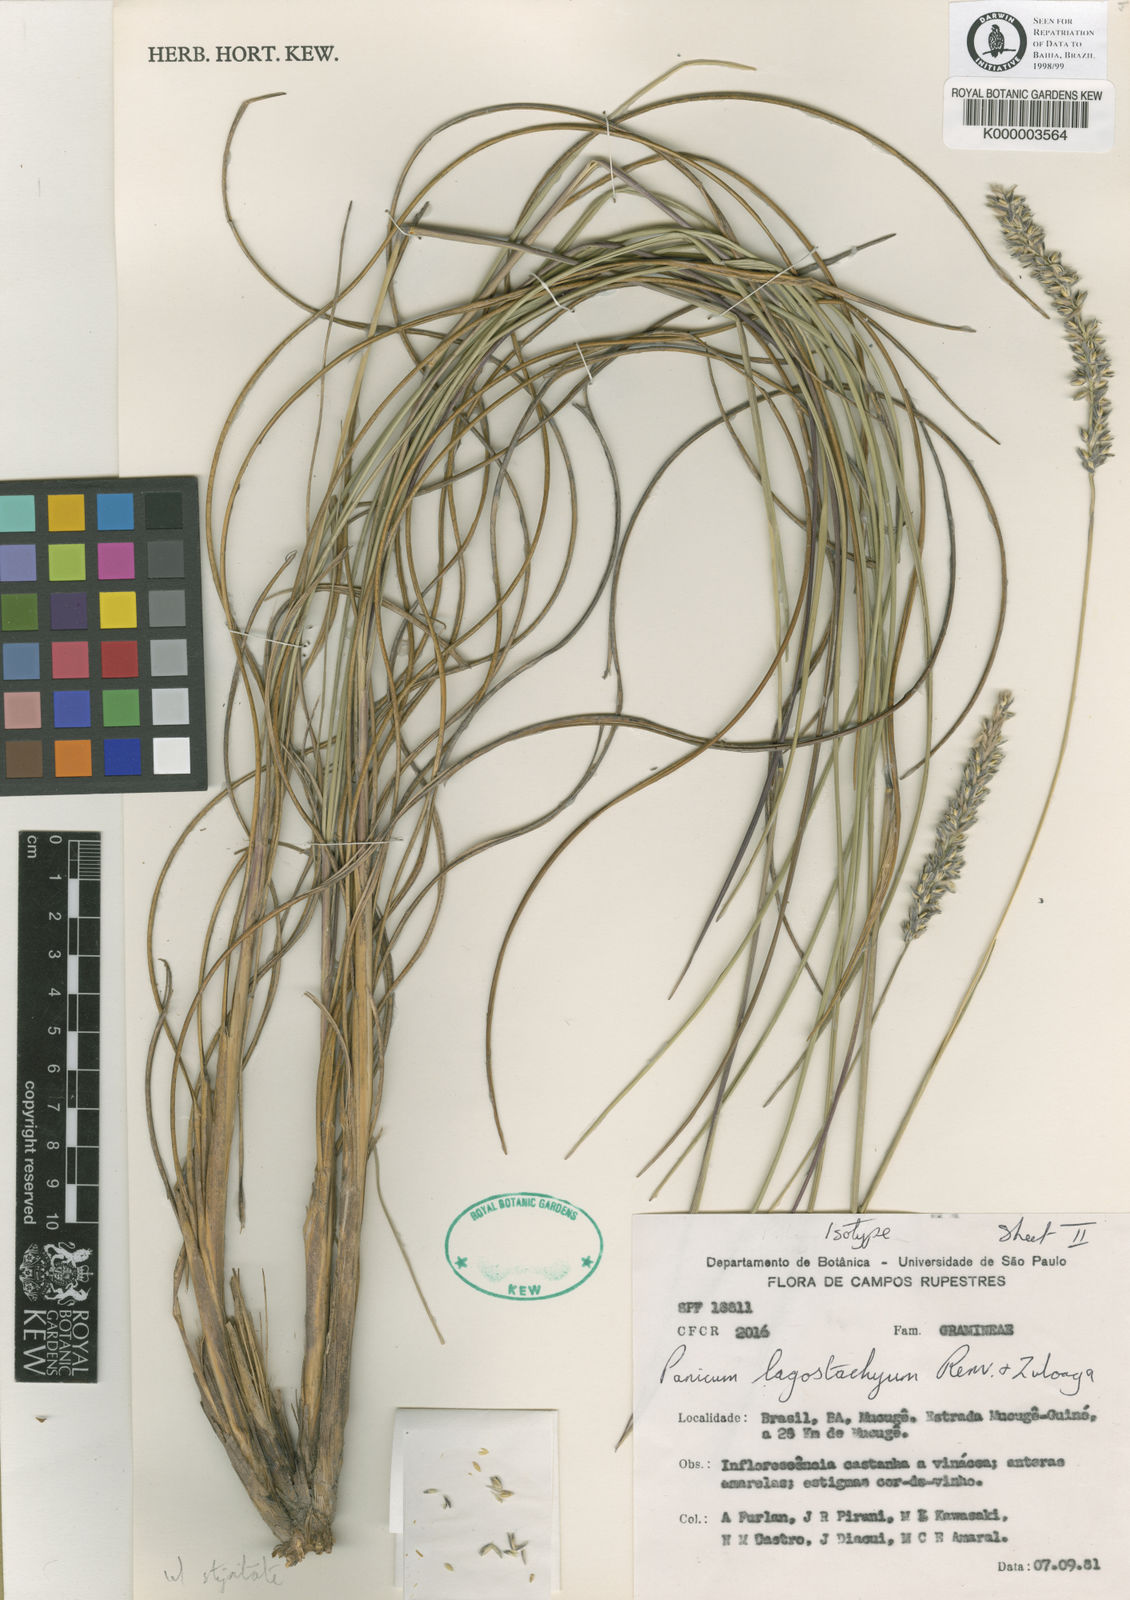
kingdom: Plantae
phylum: Tracheophyta
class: Liliopsida
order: Poales
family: Poaceae
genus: Renvoizea
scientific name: Renvoizea lagostachya
